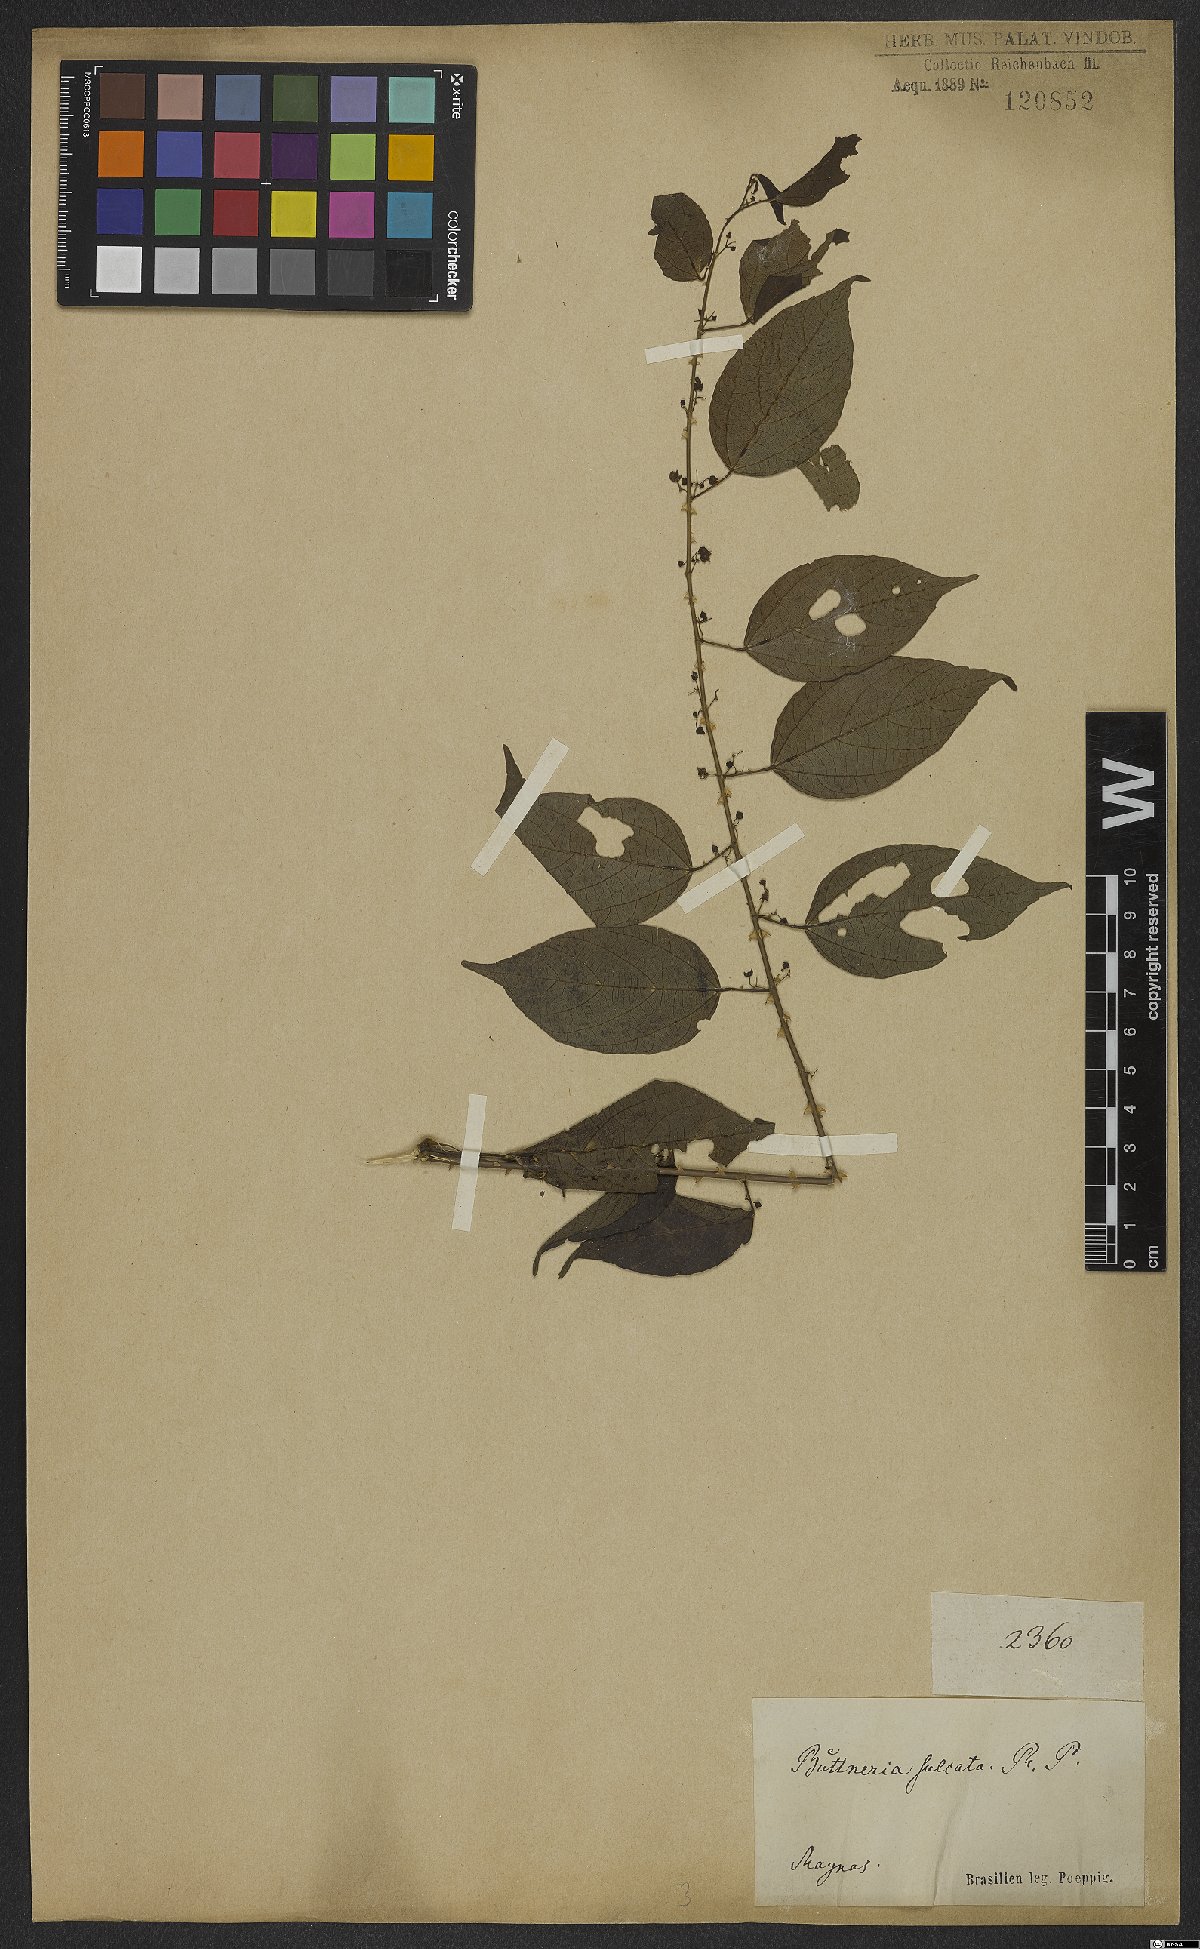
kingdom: Plantae
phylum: Tracheophyta
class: Magnoliopsida
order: Malvales
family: Malvaceae
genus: Byttneria
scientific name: Byttneria urticifolia
